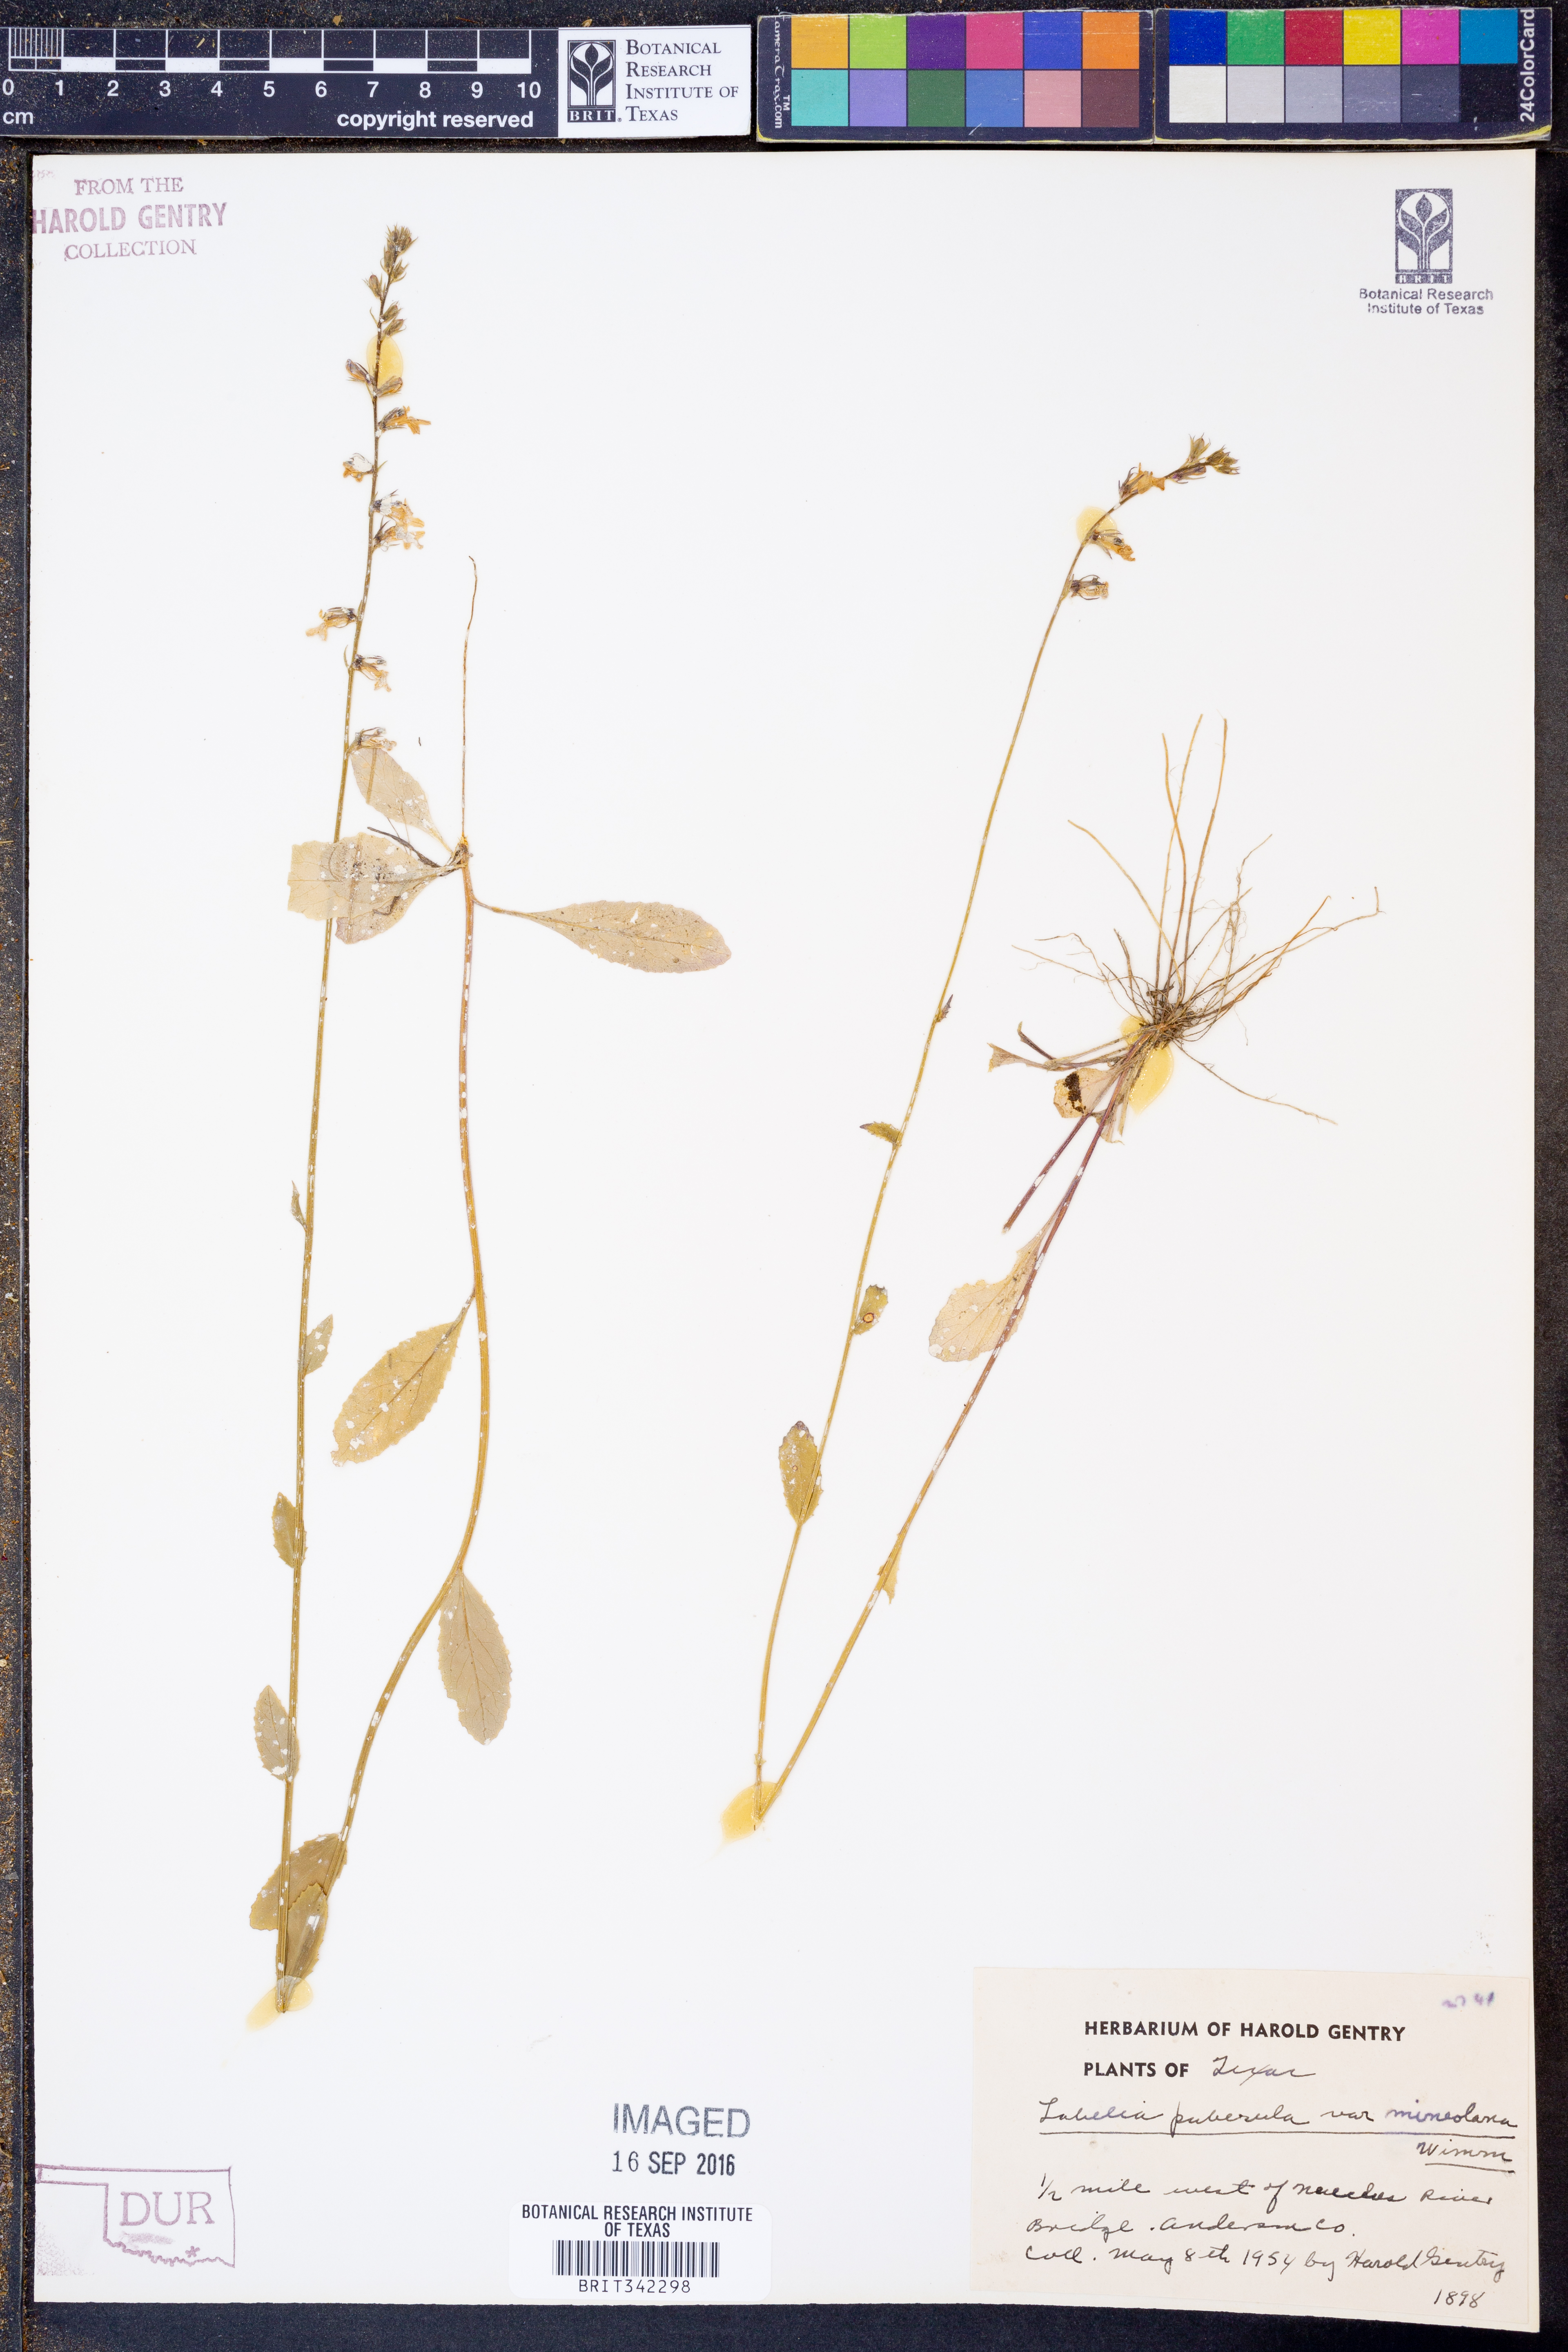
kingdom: Plantae
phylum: Tracheophyta
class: Magnoliopsida
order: Asterales
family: Campanulaceae
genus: Lobelia
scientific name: Lobelia puberula
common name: Purple dewdrop
